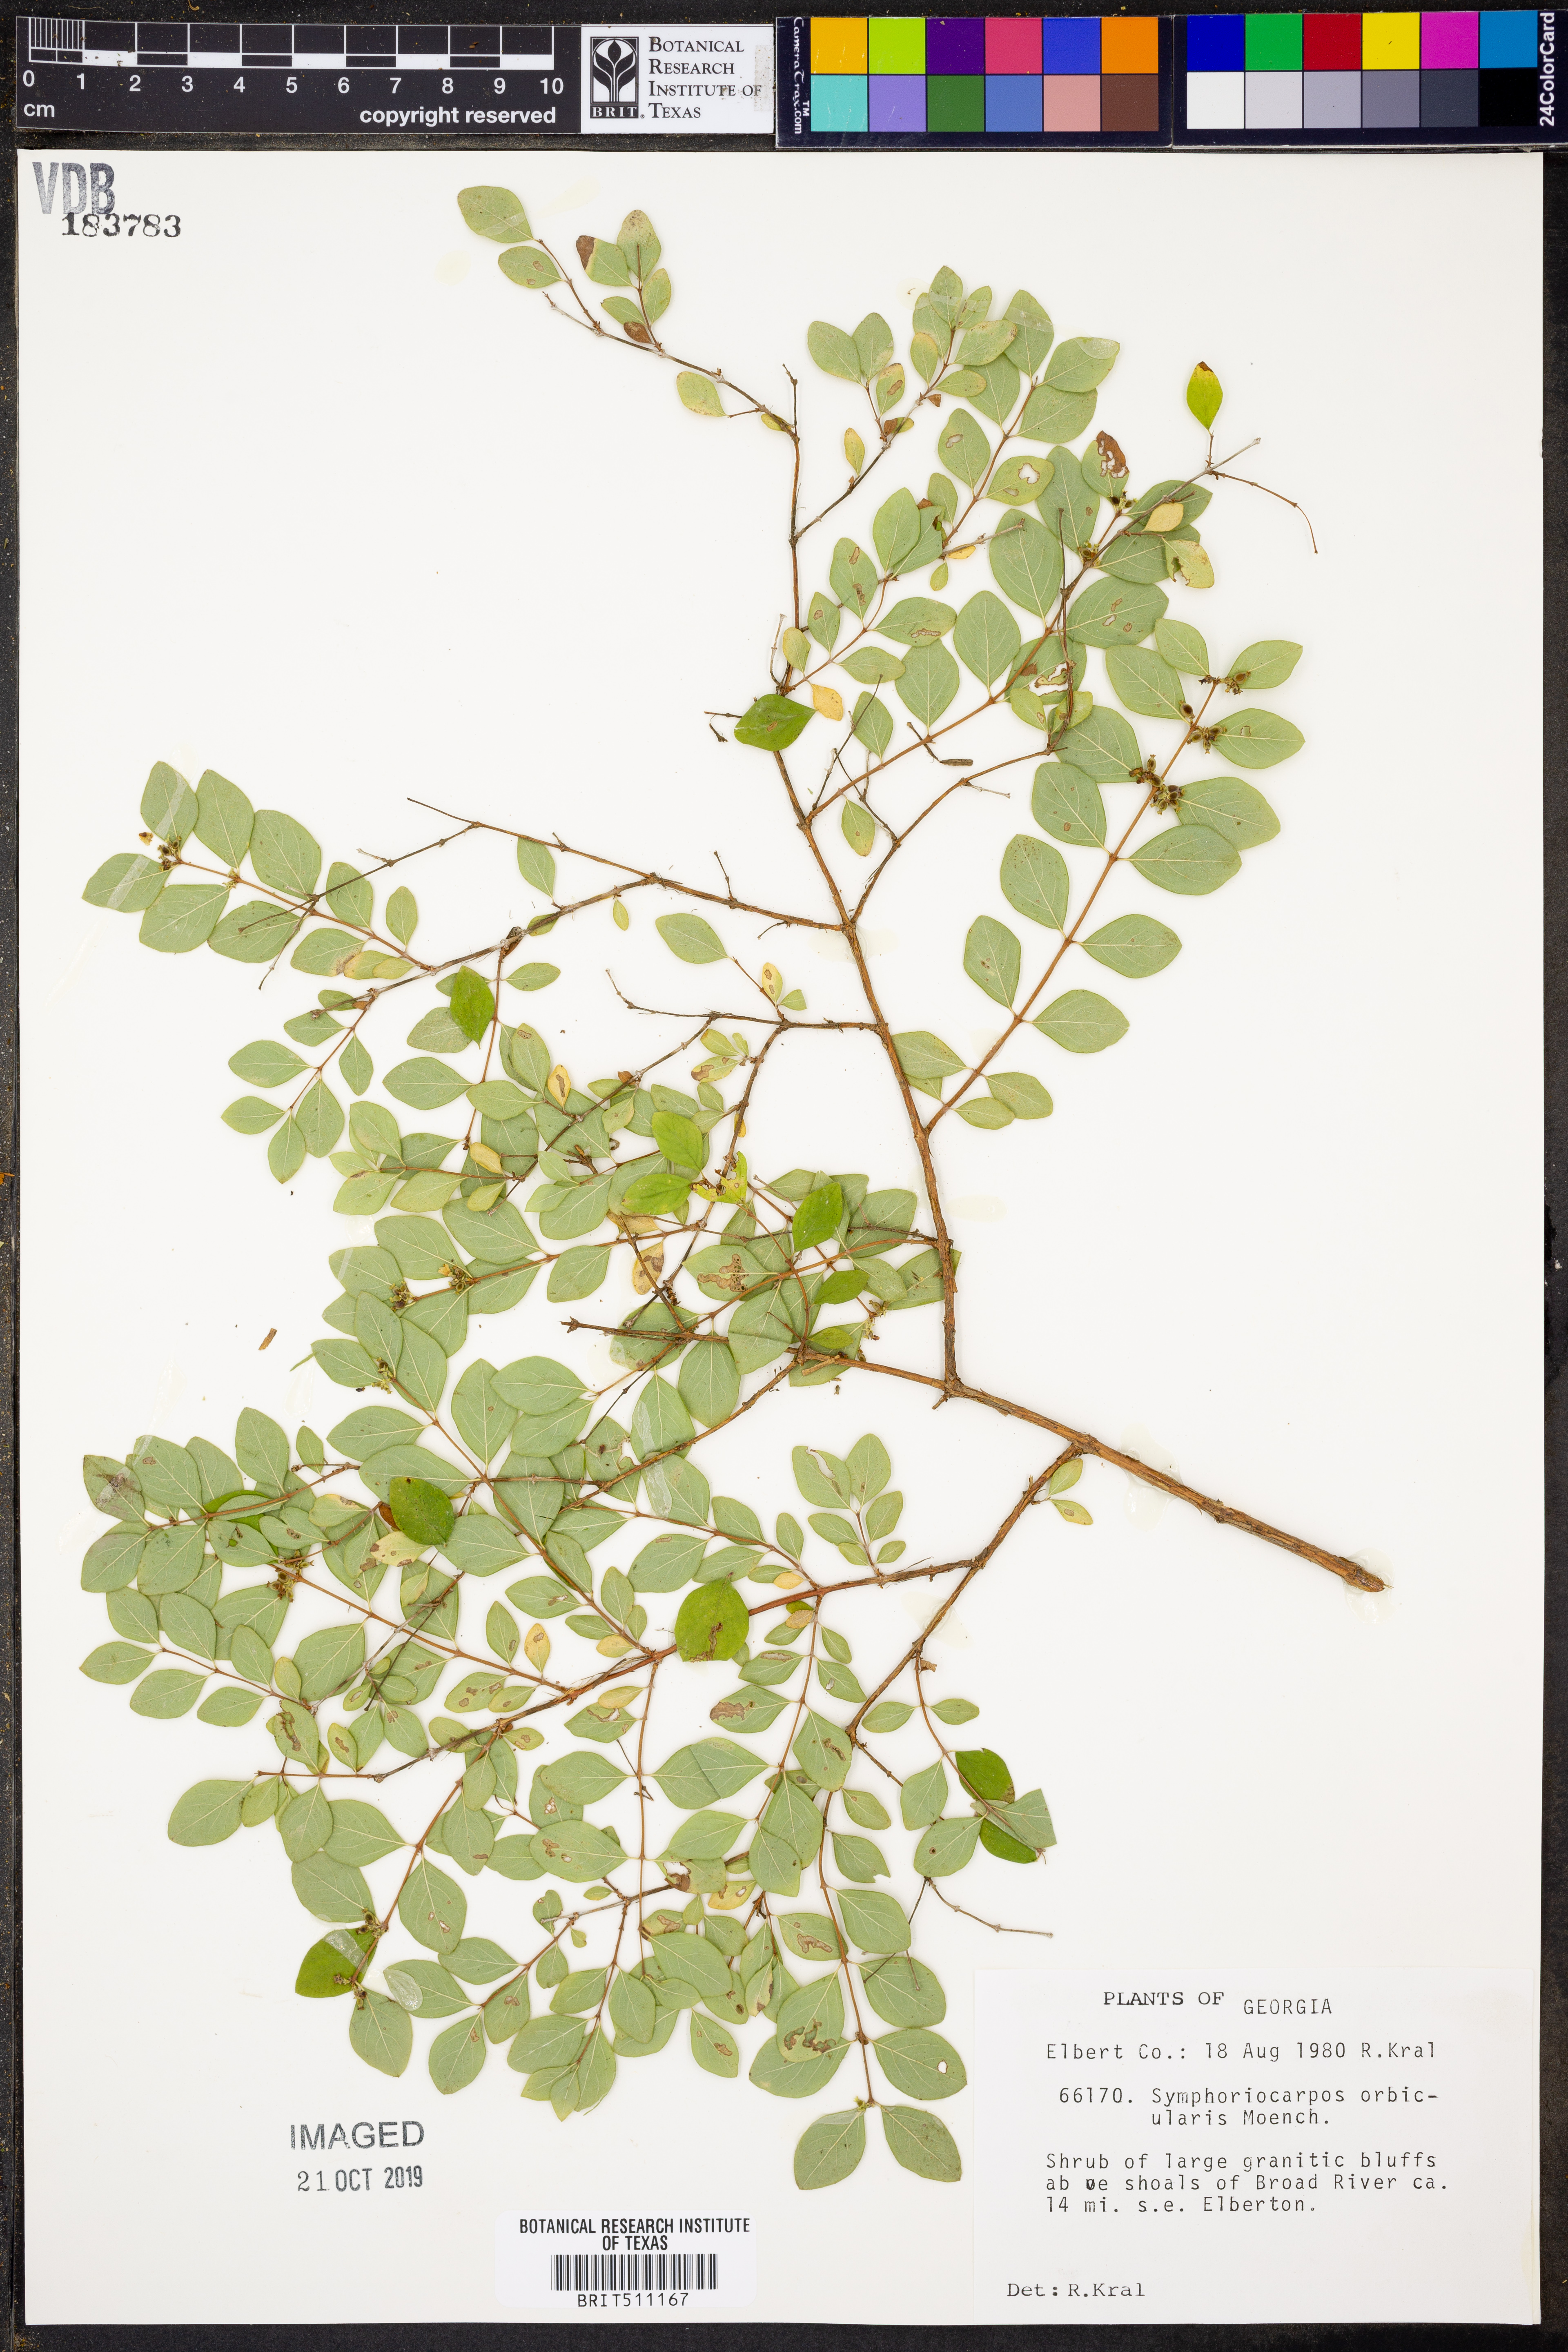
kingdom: Plantae
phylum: Tracheophyta
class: Magnoliopsida
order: Dipsacales
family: Caprifoliaceae
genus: Symphoricarpos
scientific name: Symphoricarpos orbiculatus
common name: Coralberry
